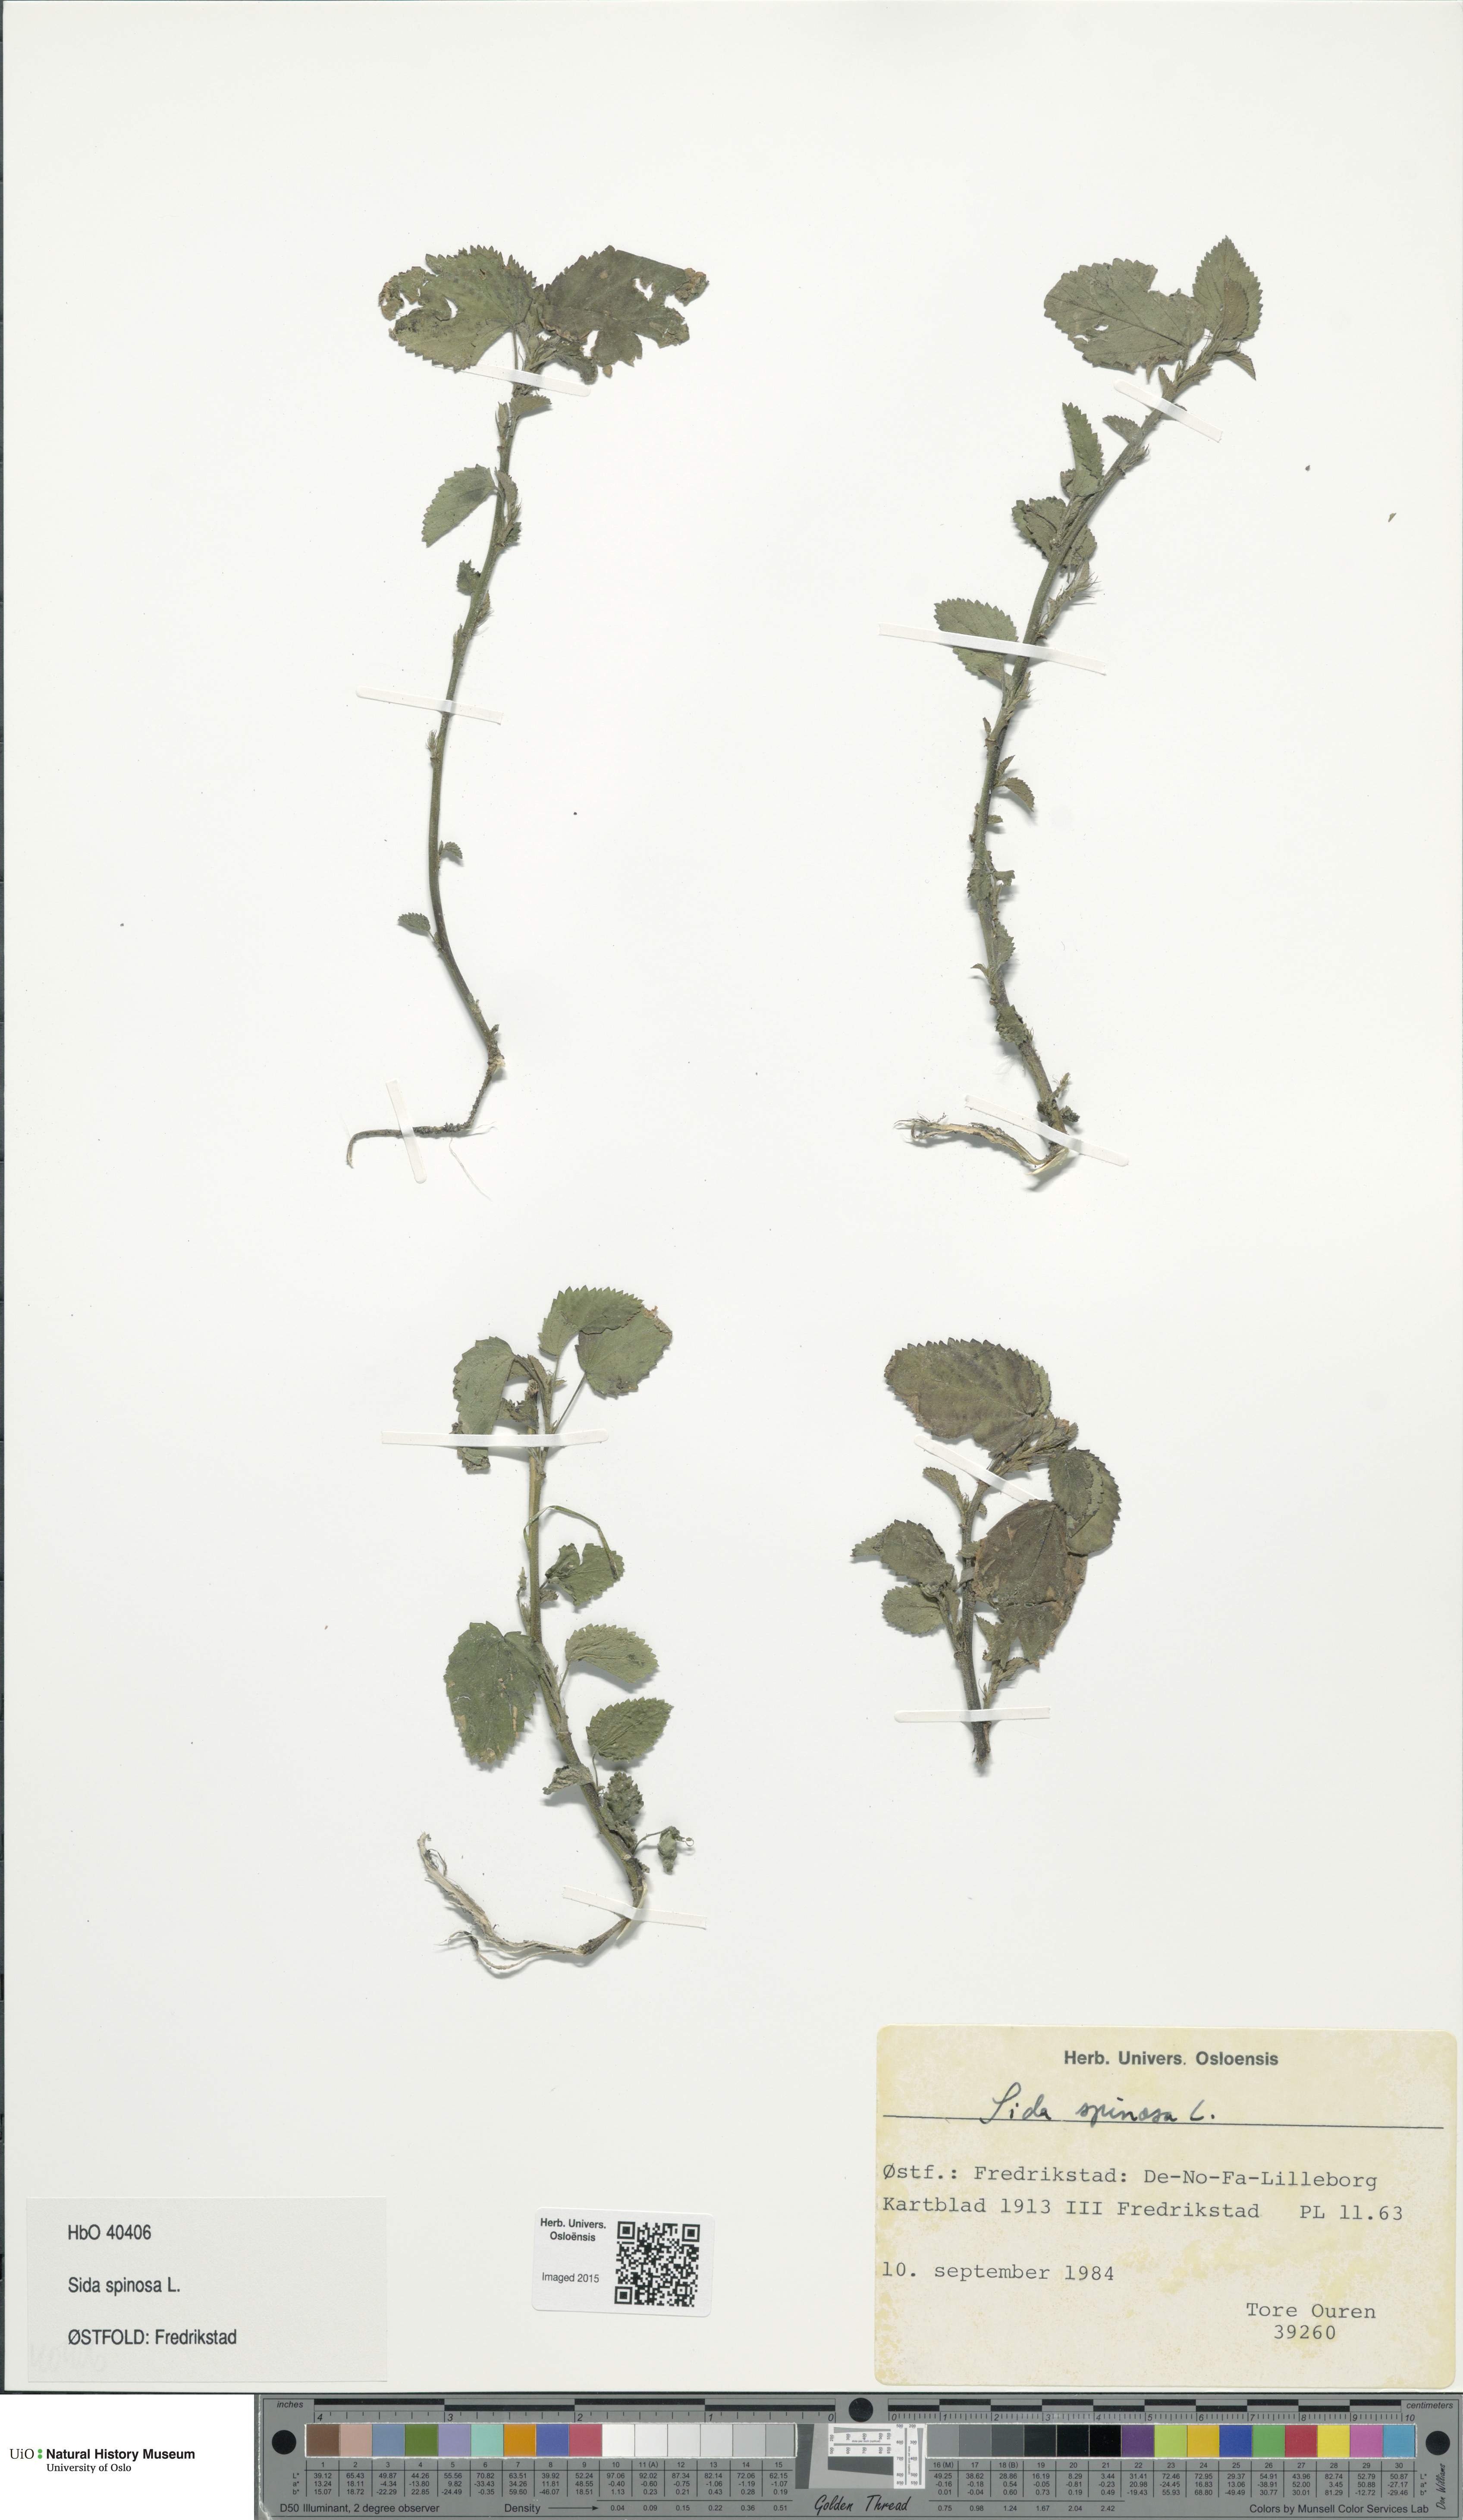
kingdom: Plantae
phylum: Tracheophyta
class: Magnoliopsida
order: Malvales
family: Malvaceae
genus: Sida
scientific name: Sida spinosa
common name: Prickly fanpetals
